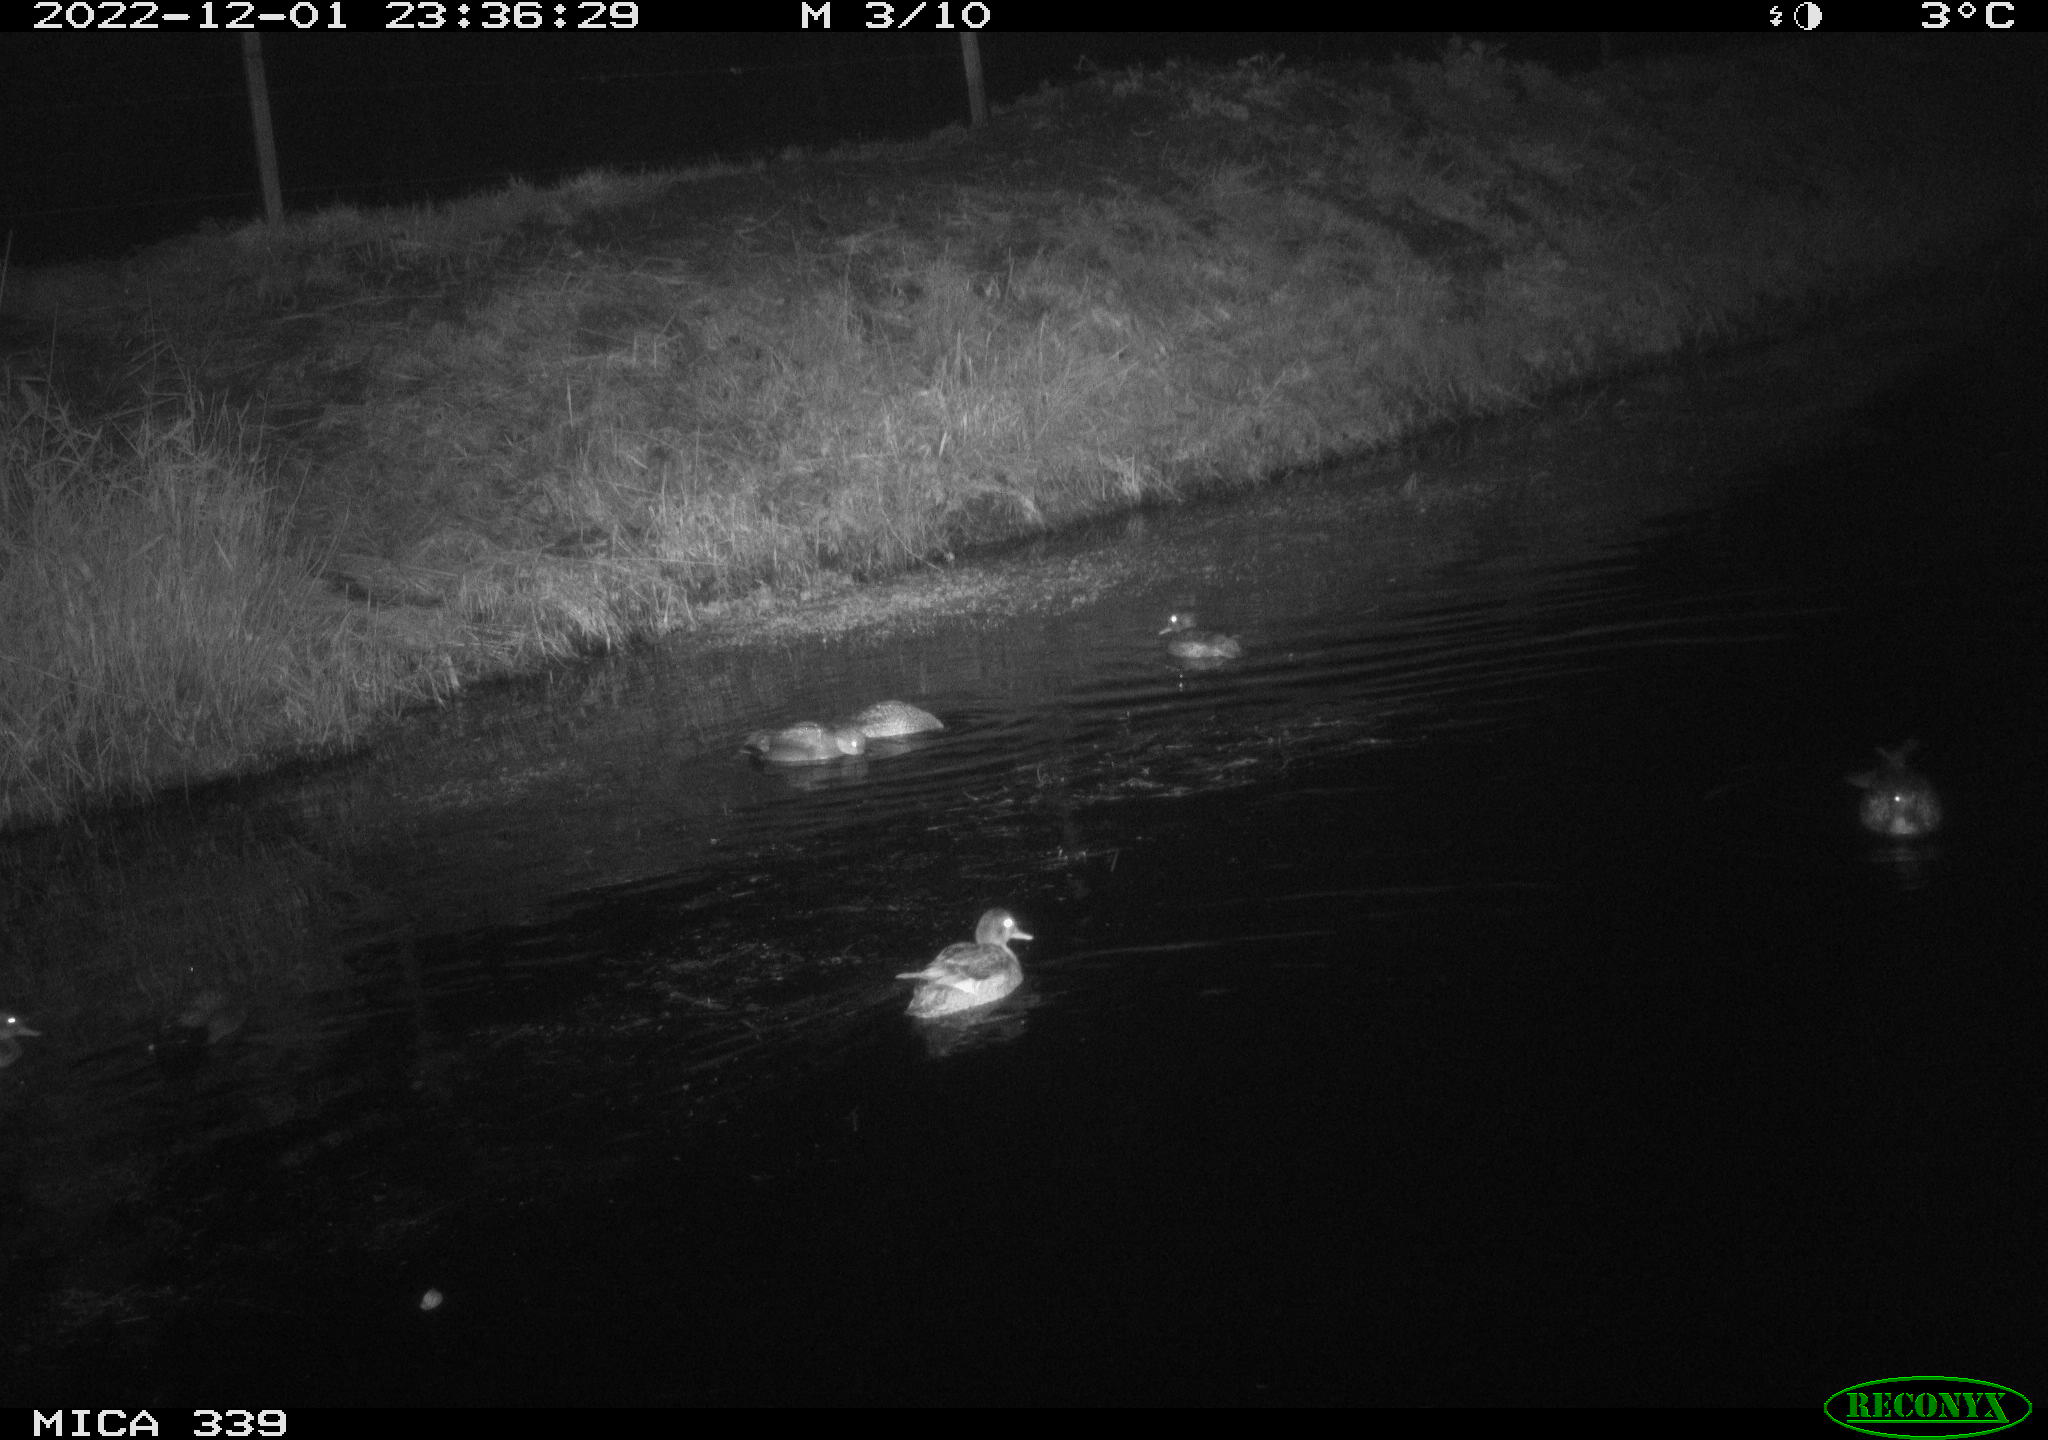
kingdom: Animalia
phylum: Chordata
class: Aves
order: Anseriformes
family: Anatidae
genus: Anas
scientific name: Anas
